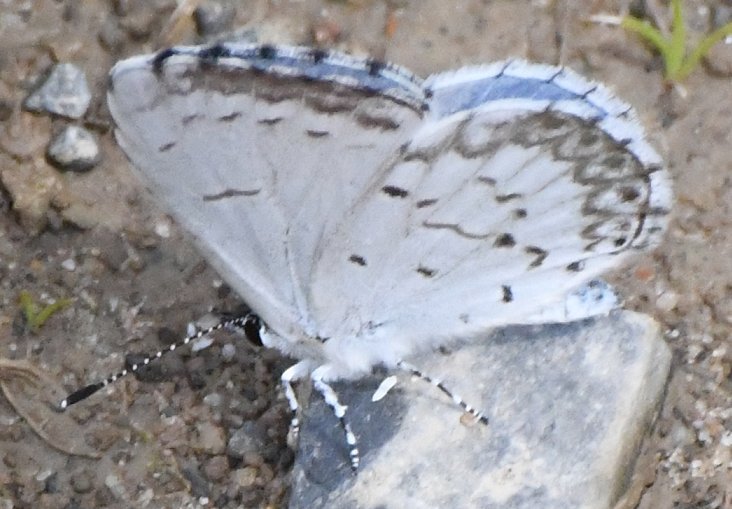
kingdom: Animalia
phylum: Arthropoda
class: Insecta
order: Lepidoptera
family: Lycaenidae
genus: Cyaniris
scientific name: Cyaniris neglecta
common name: Summer Azure
